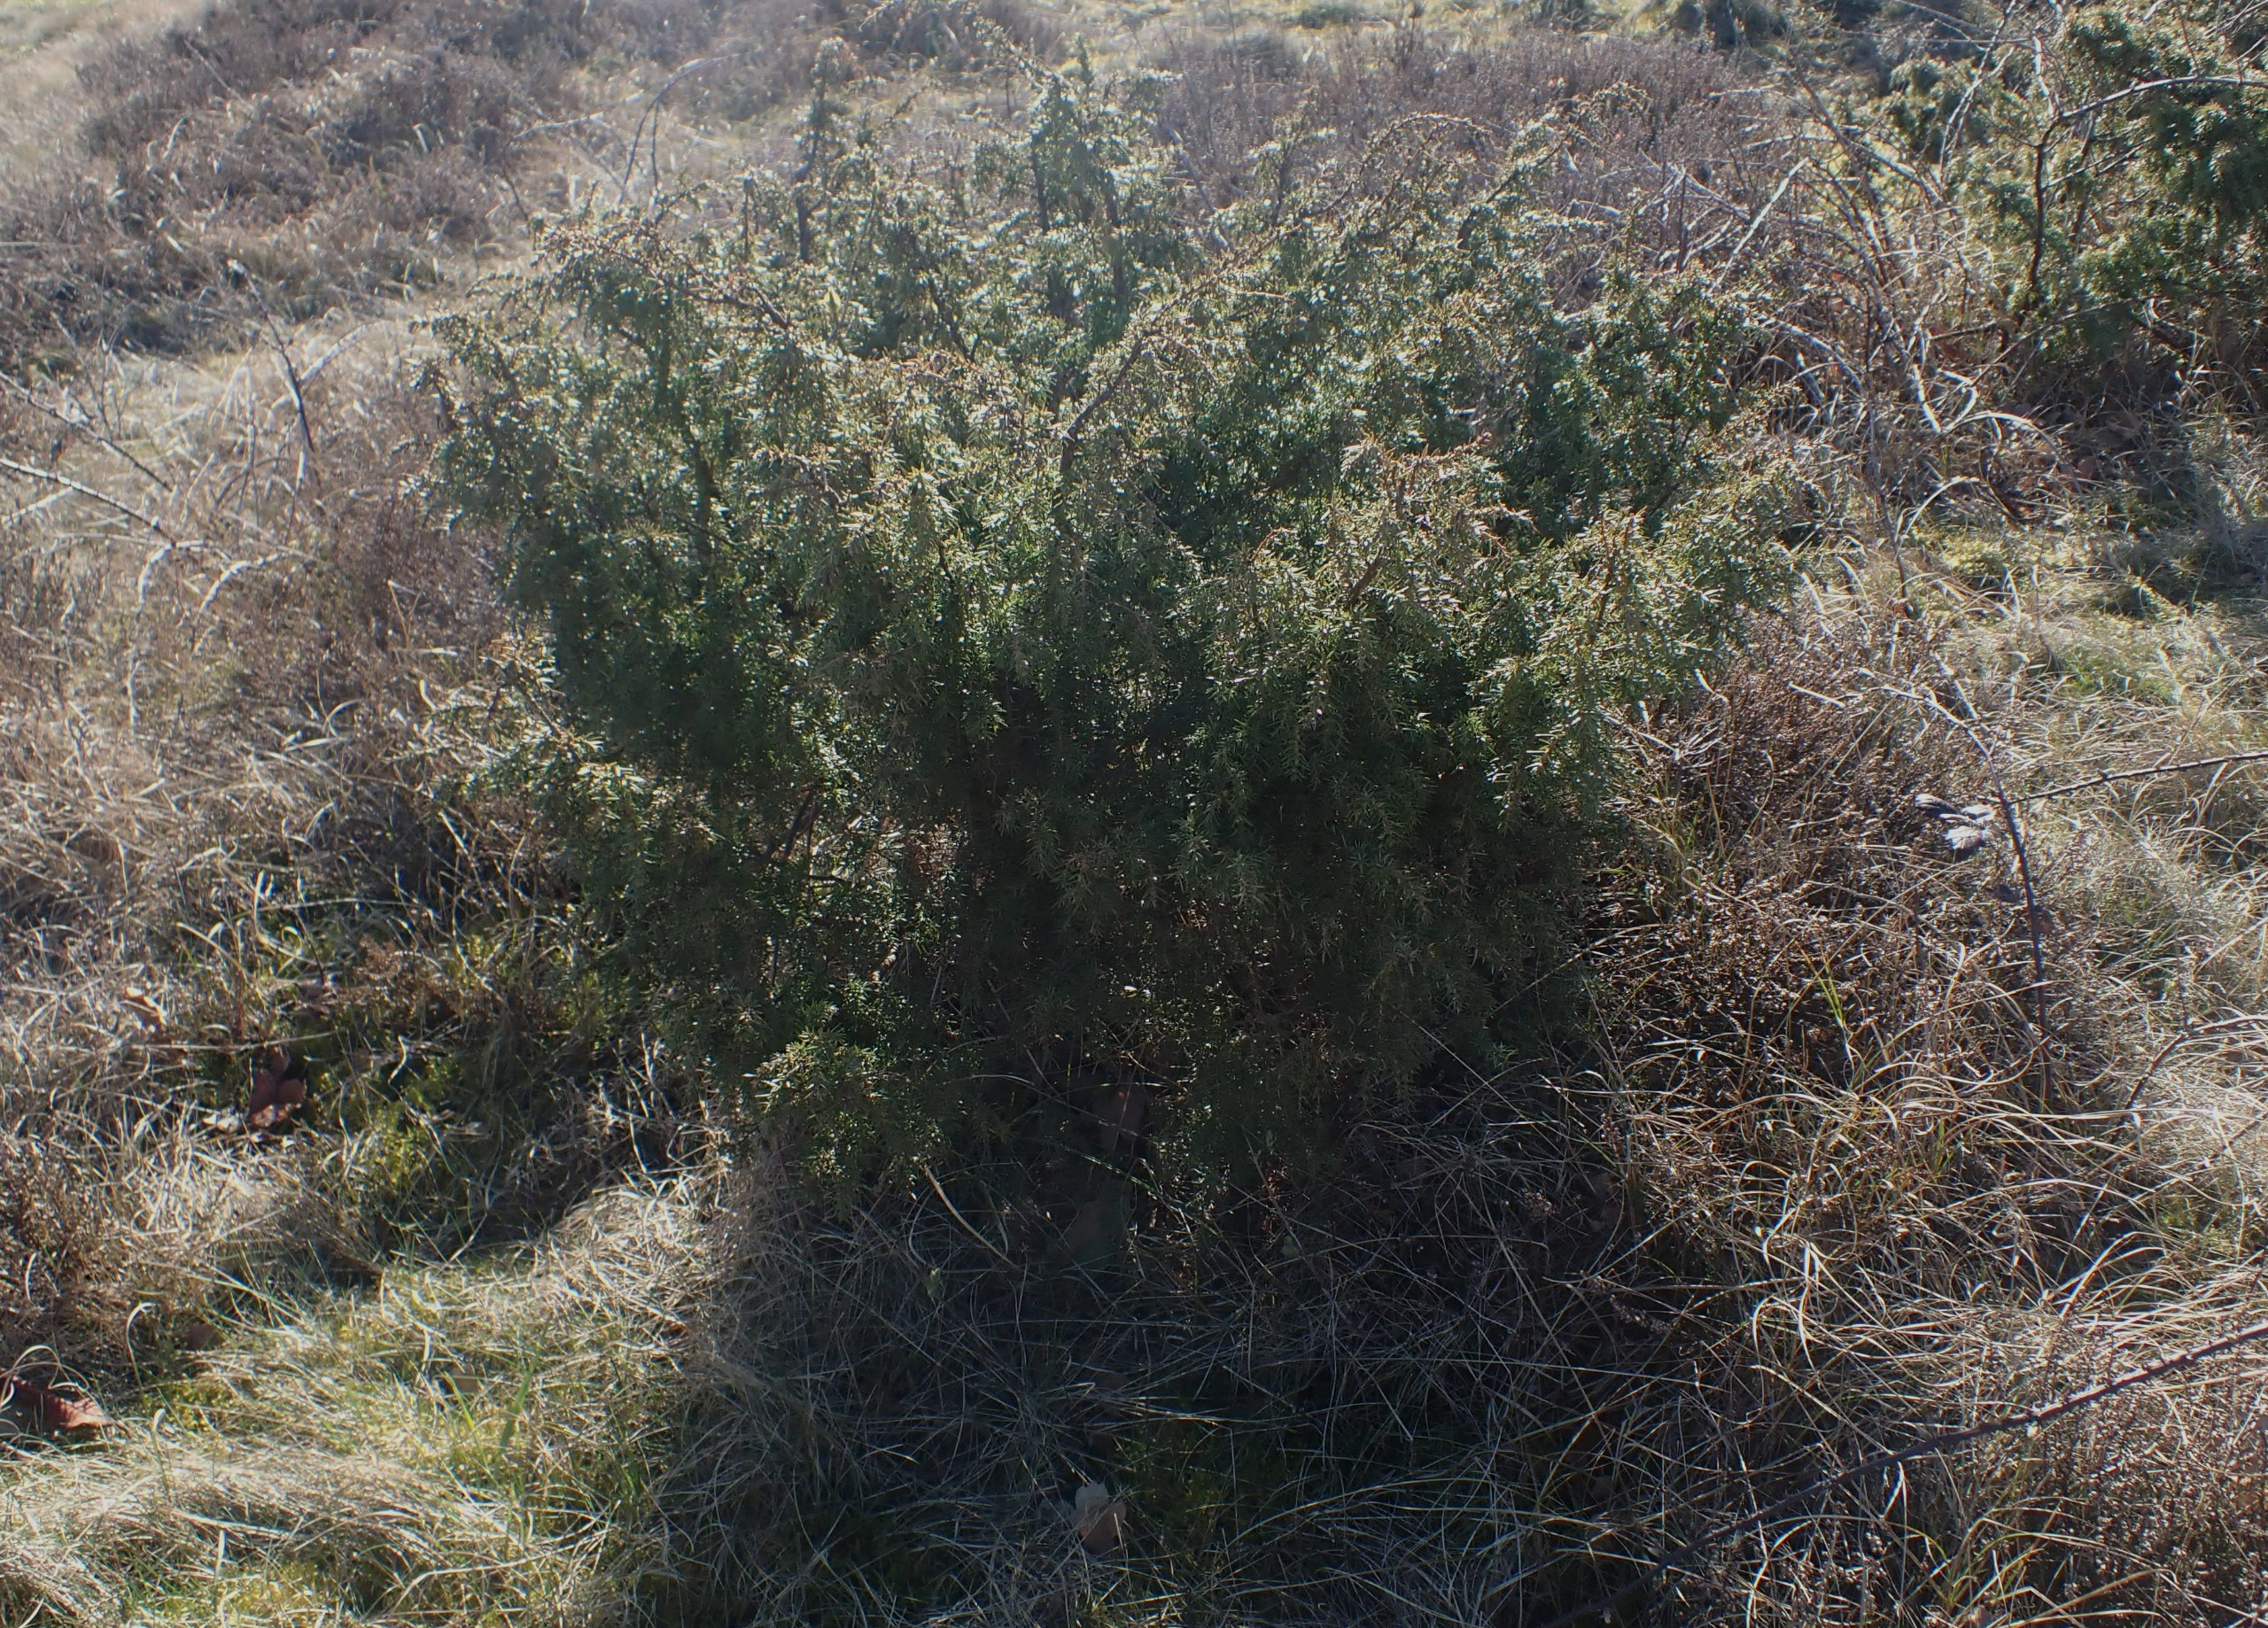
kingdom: Plantae
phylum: Tracheophyta
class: Pinopsida
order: Pinales
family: Cupressaceae
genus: Juniperus
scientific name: Juniperus communis
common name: Almindelig ene
